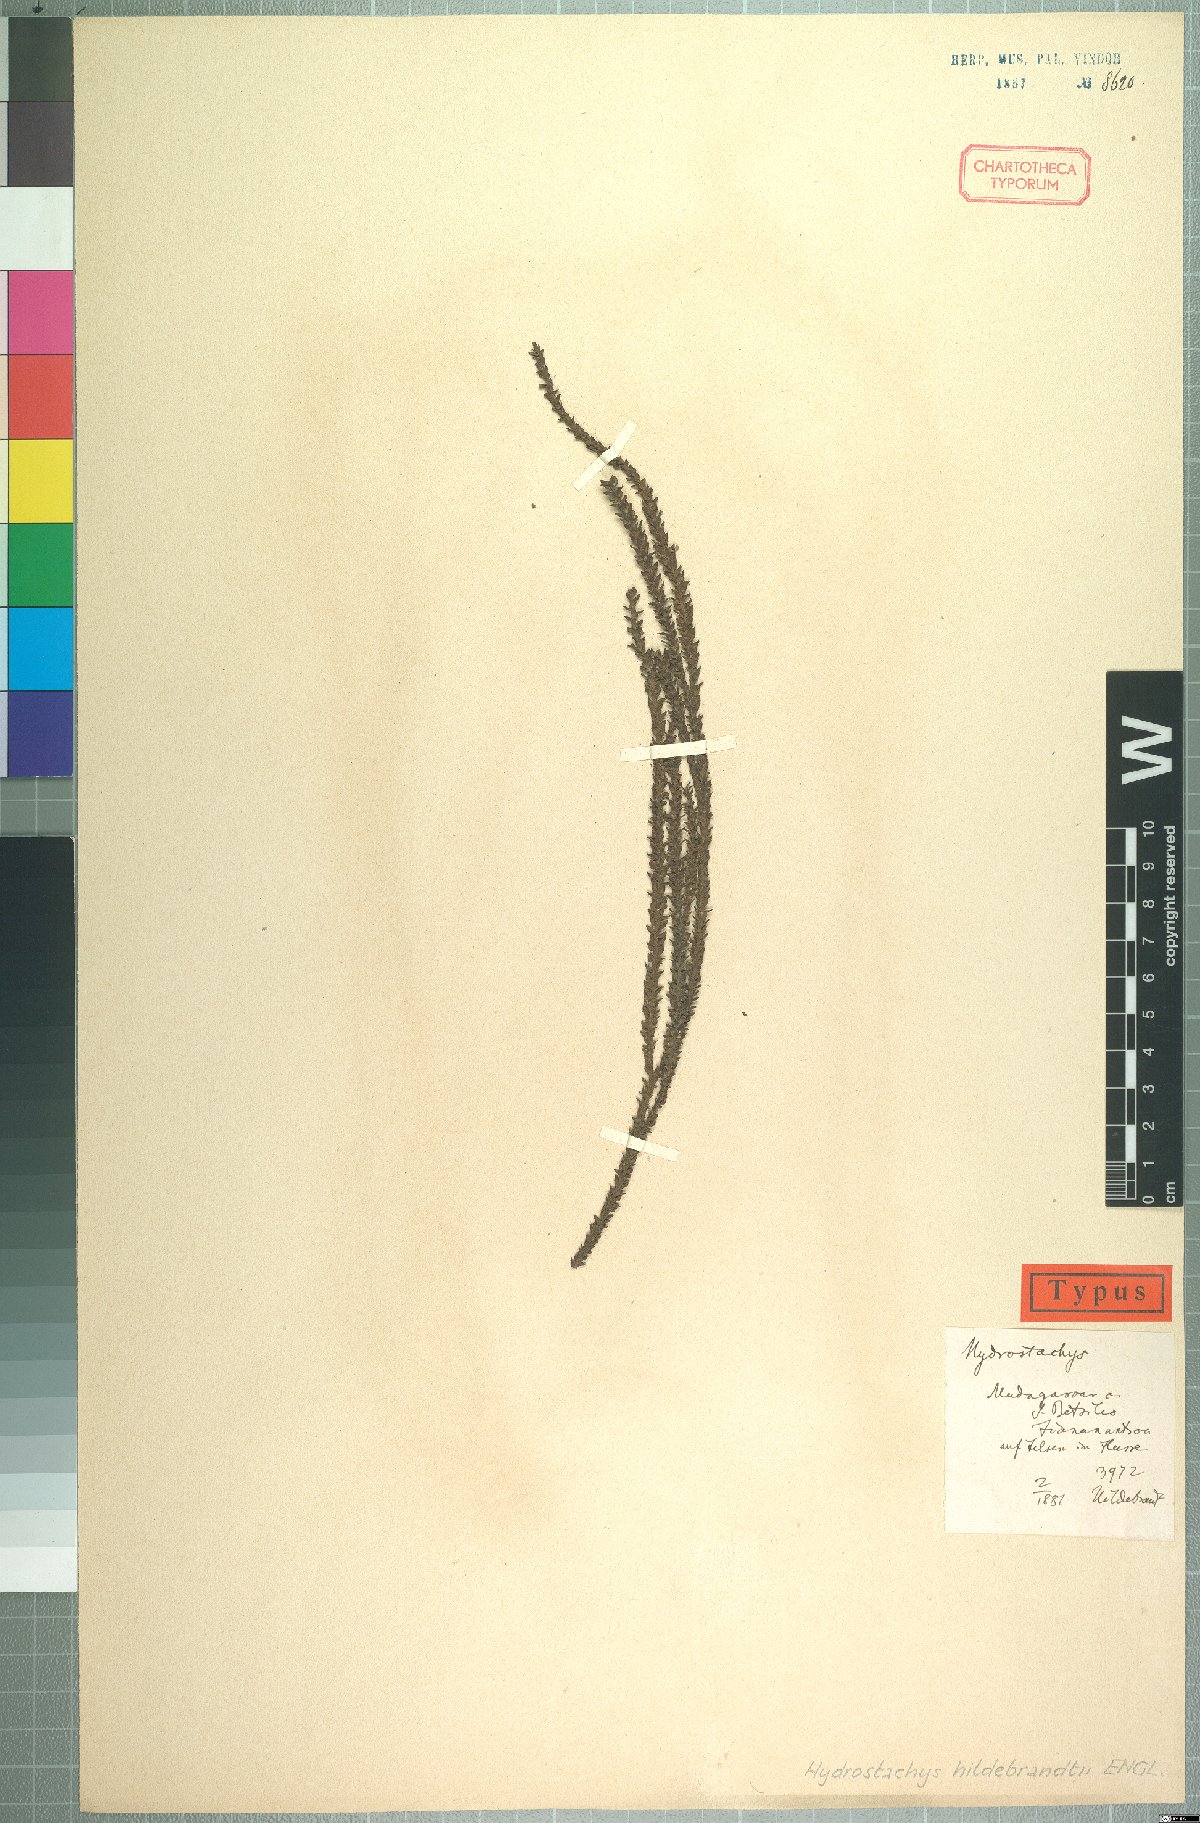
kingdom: Plantae
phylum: Tracheophyta
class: Magnoliopsida
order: Cornales
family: Hydrostachyaceae
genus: Hydrostachys
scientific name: Hydrostachys distichophylla
